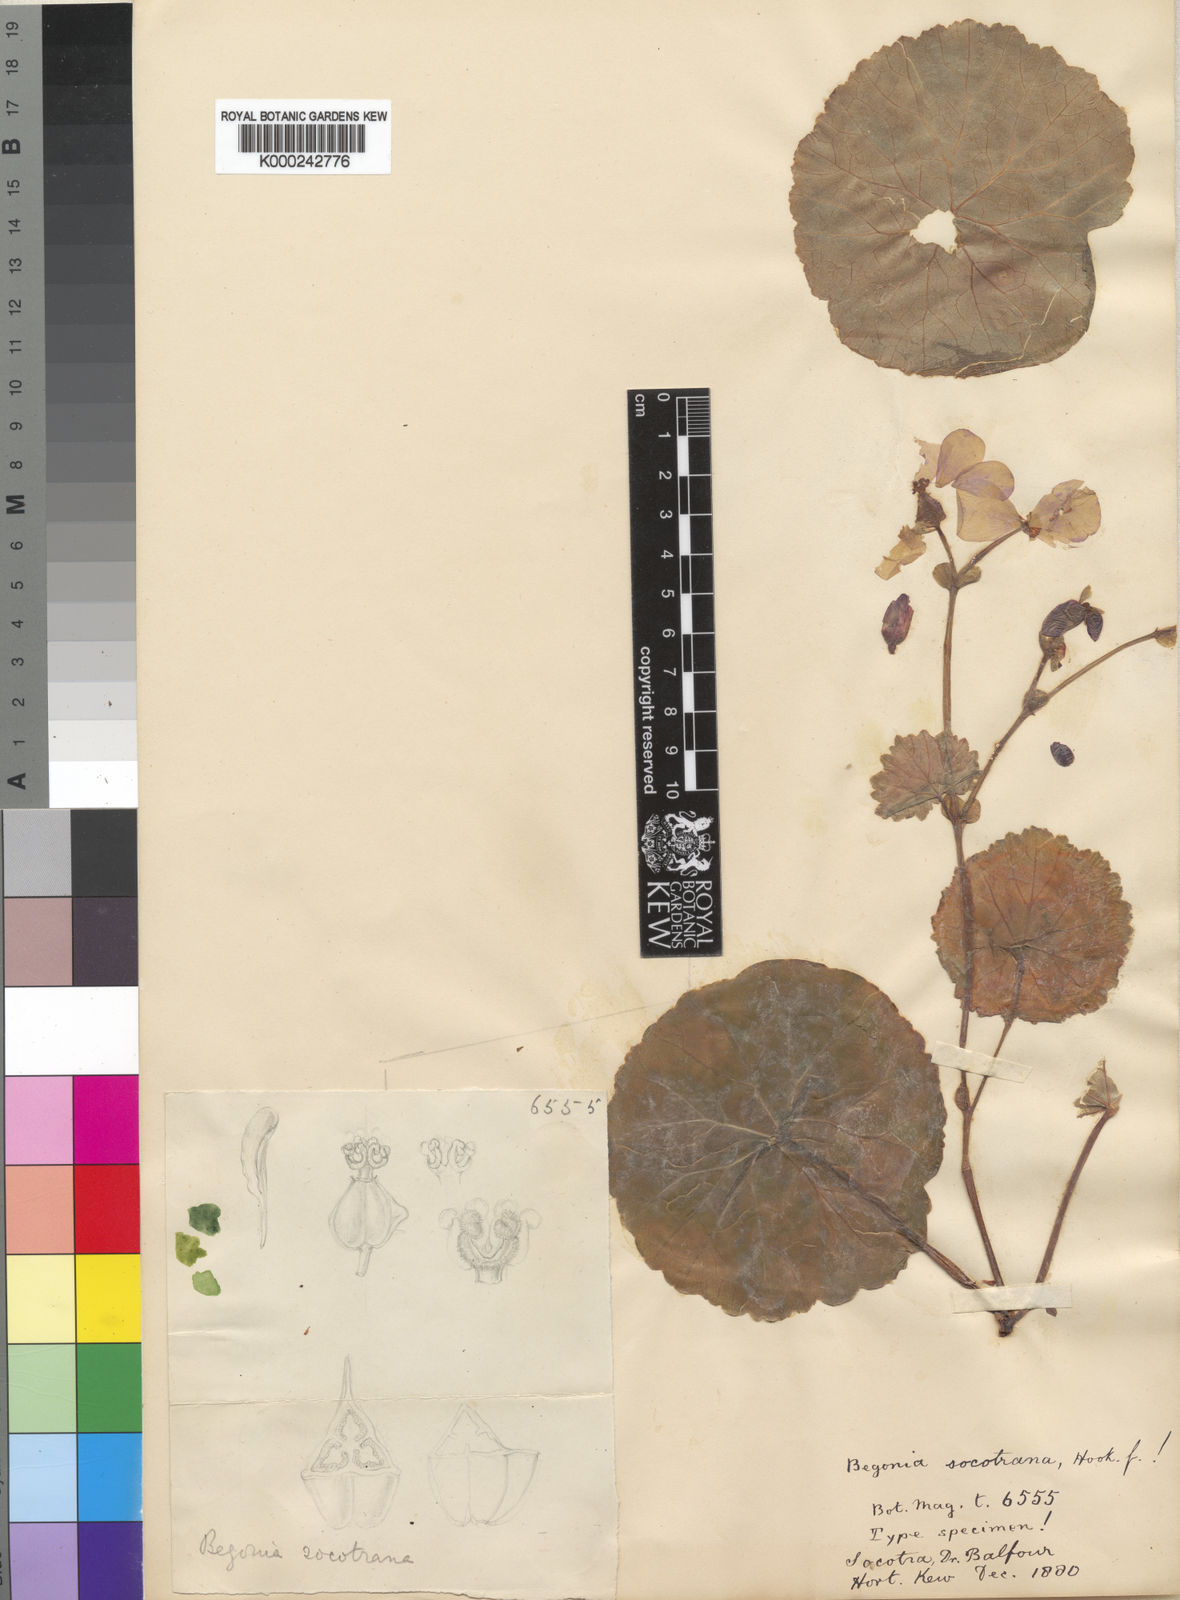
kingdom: Plantae
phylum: Tracheophyta
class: Magnoliopsida
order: Cucurbitales
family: Begoniaceae
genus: Begonia
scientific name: Begonia socotrana
